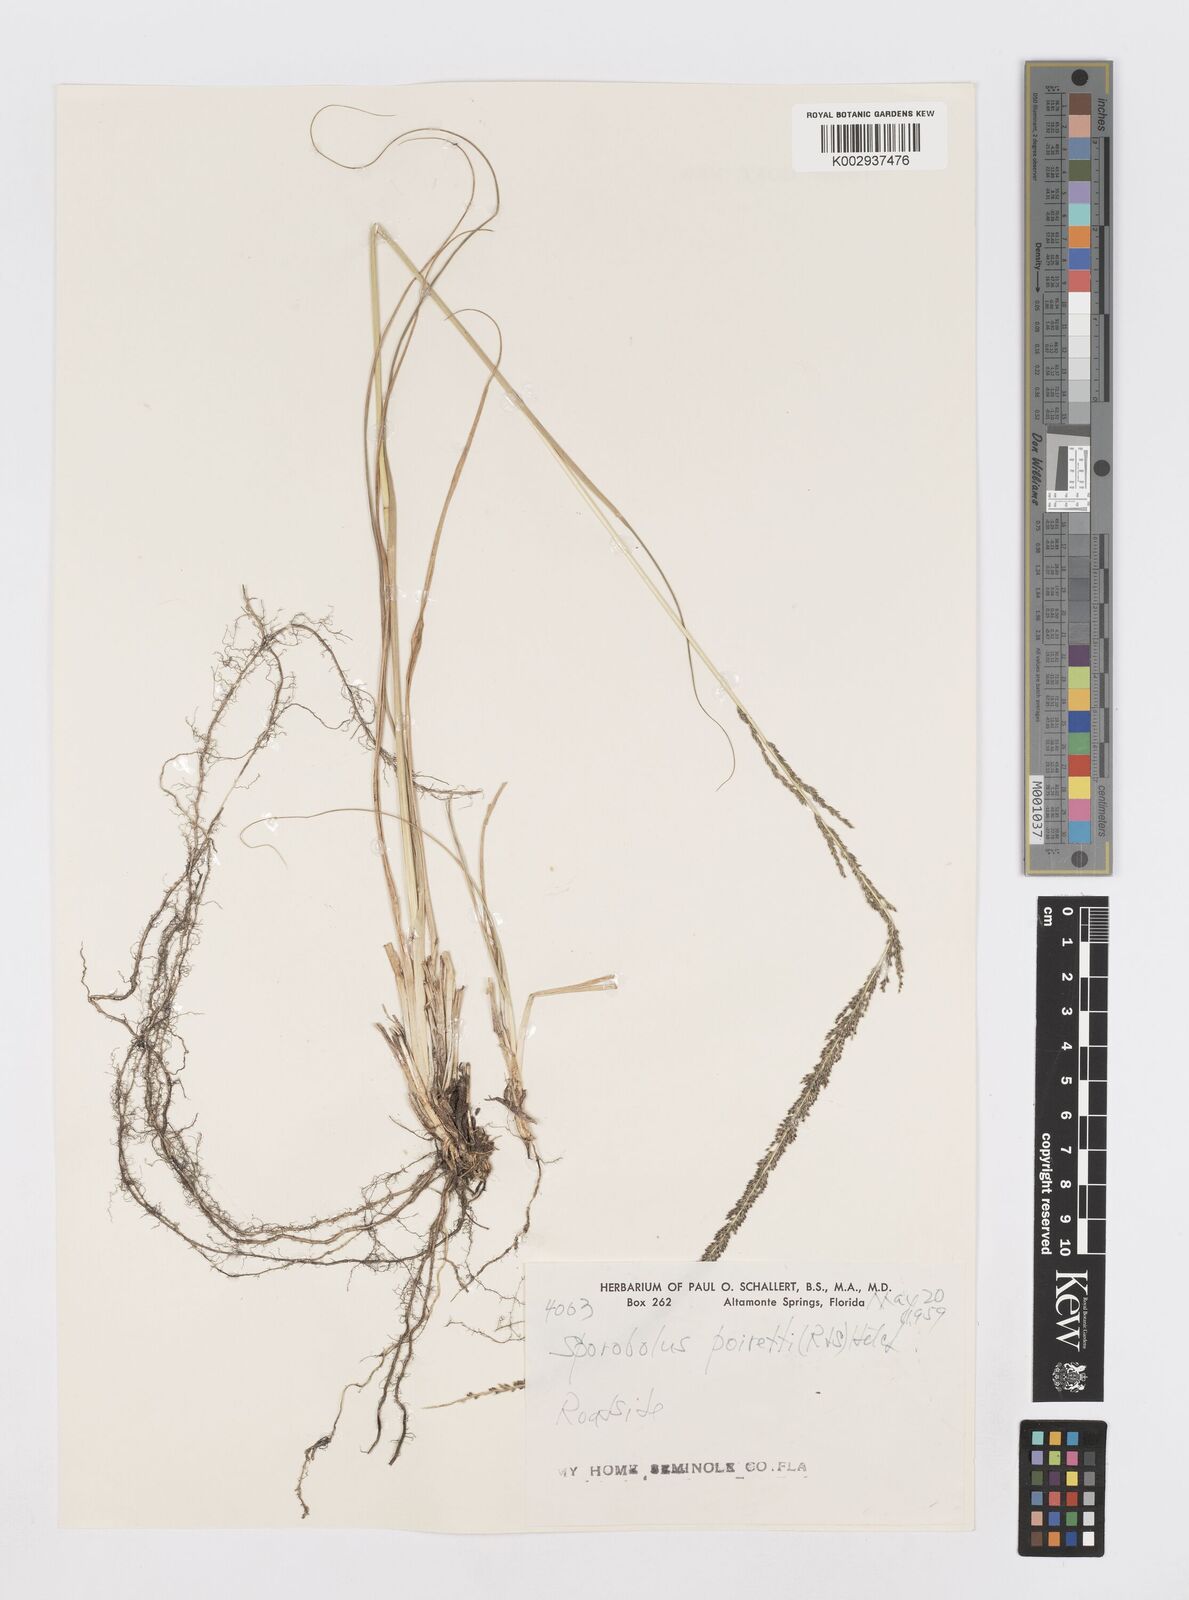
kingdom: Plantae
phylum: Tracheophyta
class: Liliopsida
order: Poales
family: Poaceae
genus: Sporobolus
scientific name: Sporobolus junceus
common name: Lizard grass
